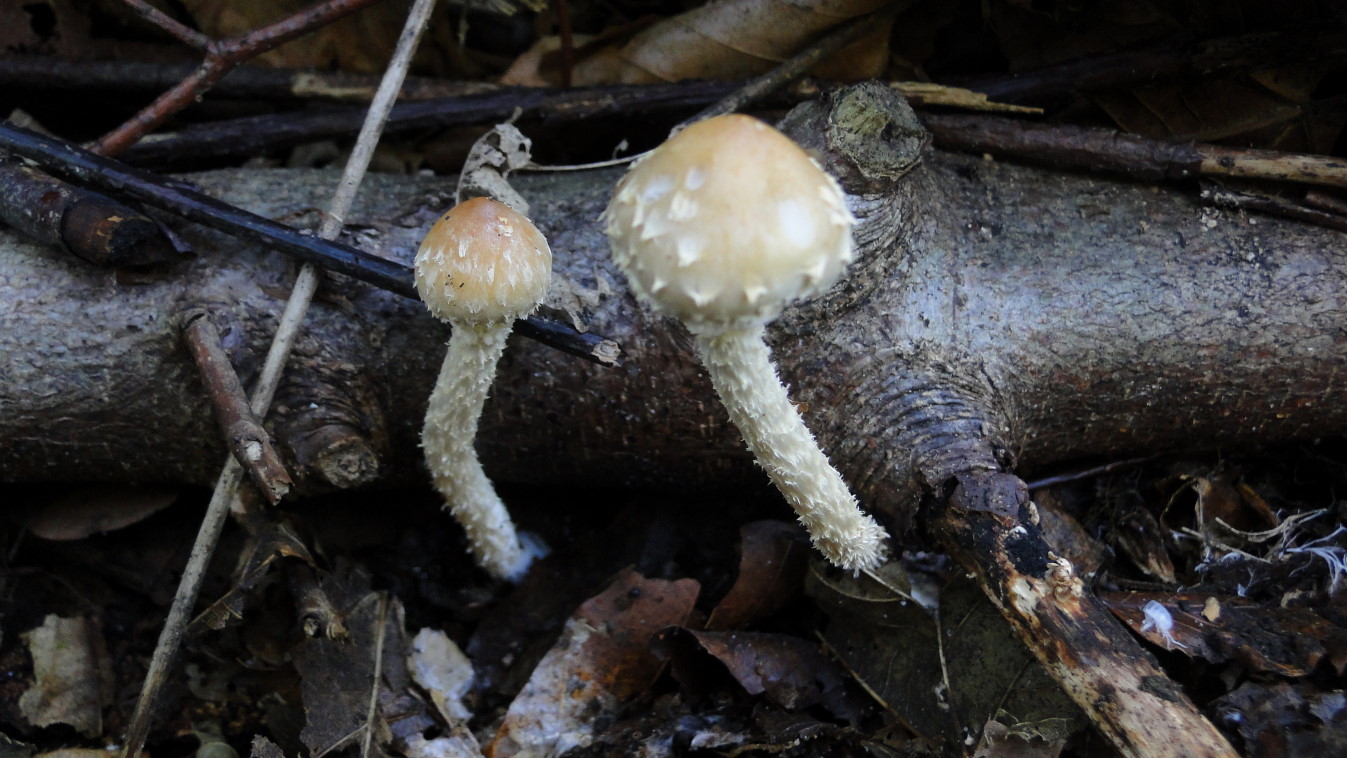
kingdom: Fungi
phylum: Basidiomycota
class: Agaricomycetes
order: Agaricales
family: Strophariaceae
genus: Leratiomyces
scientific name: Leratiomyces squamosus
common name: skællet bredblad
